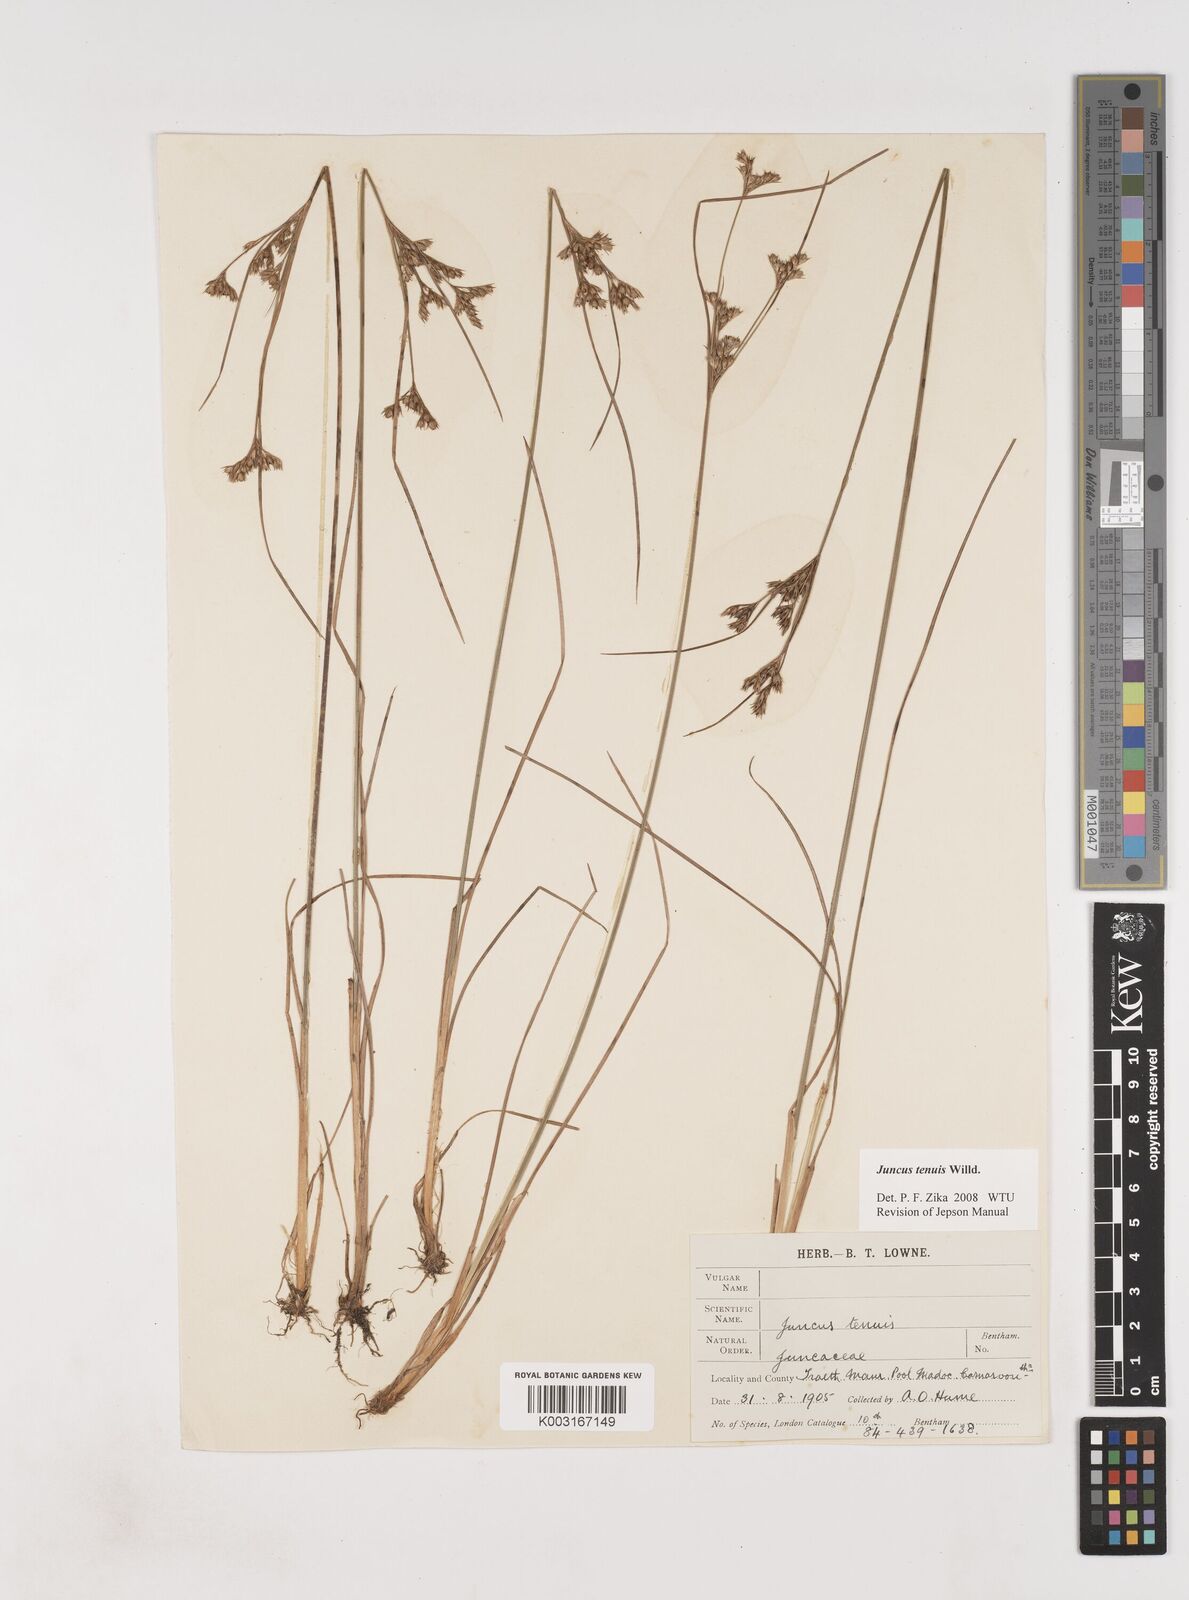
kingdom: Plantae
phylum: Tracheophyta
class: Liliopsida
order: Poales
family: Juncaceae
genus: Juncus
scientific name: Juncus tenuis
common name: Slender rush
